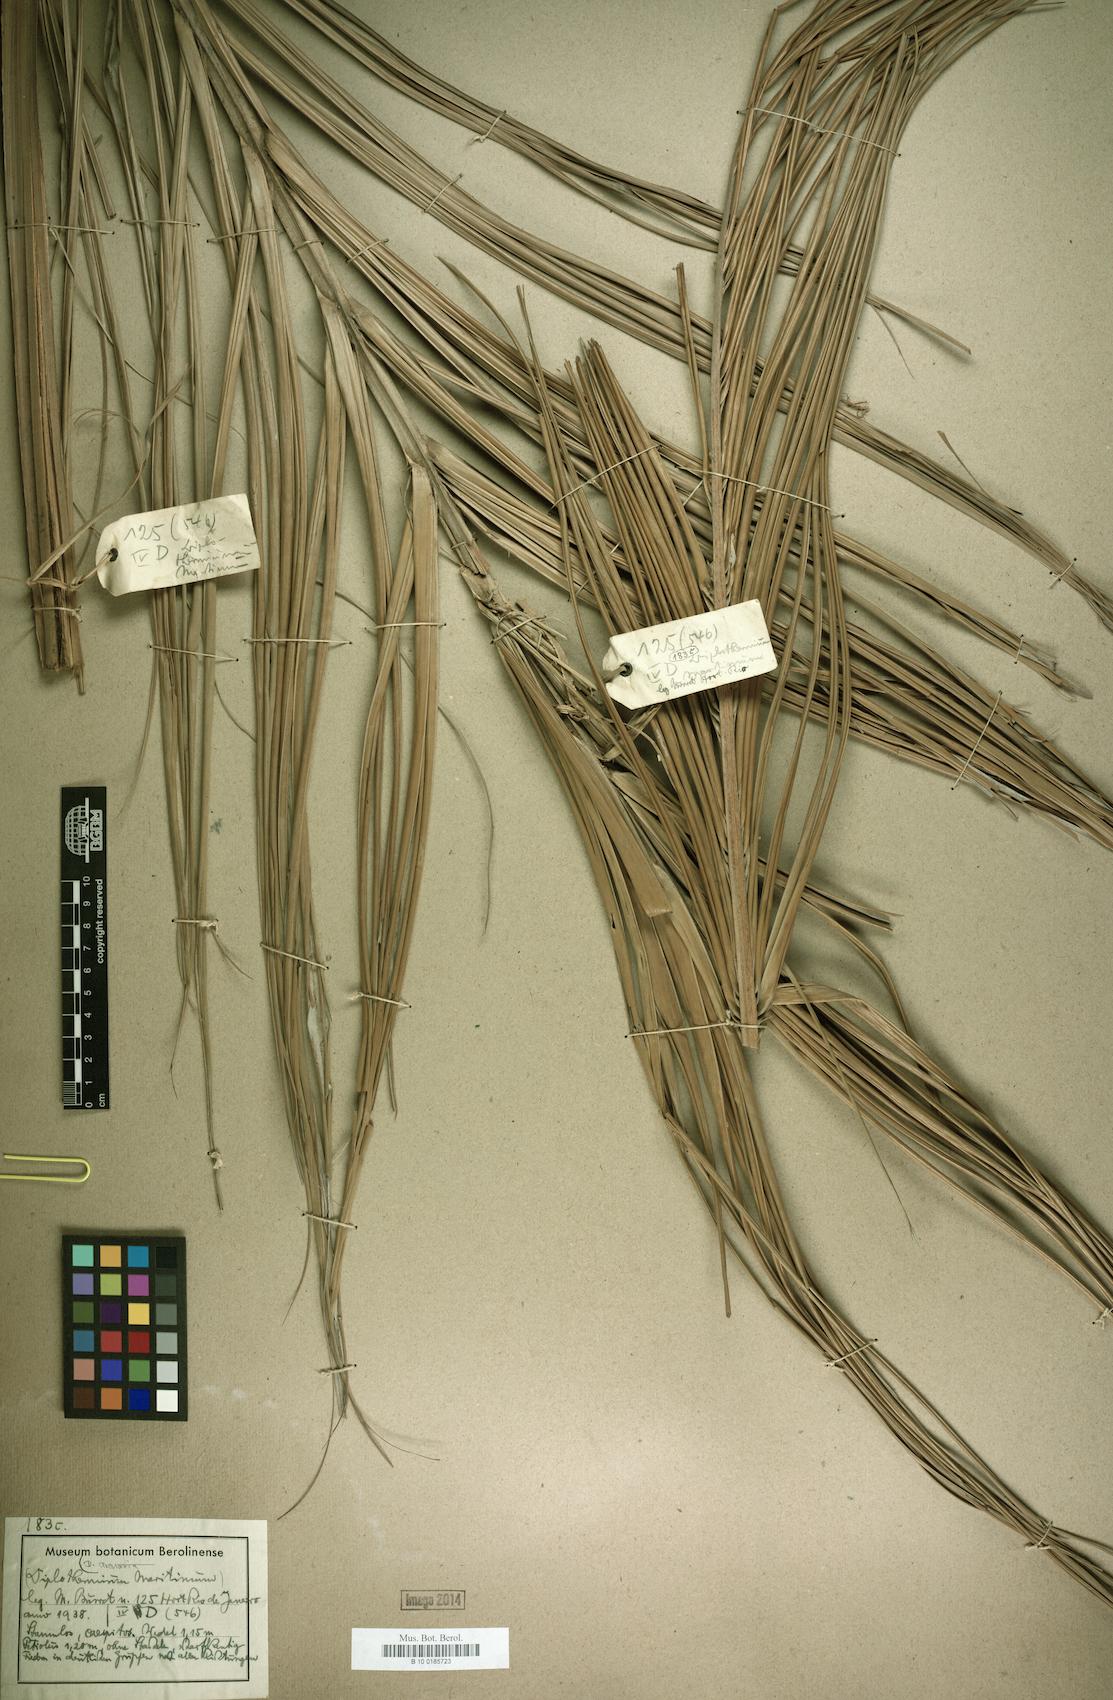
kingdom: Plantae
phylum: Tracheophyta
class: Liliopsida
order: Arecales
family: Arecaceae
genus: Allagoptera
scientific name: Allagoptera arenaria
